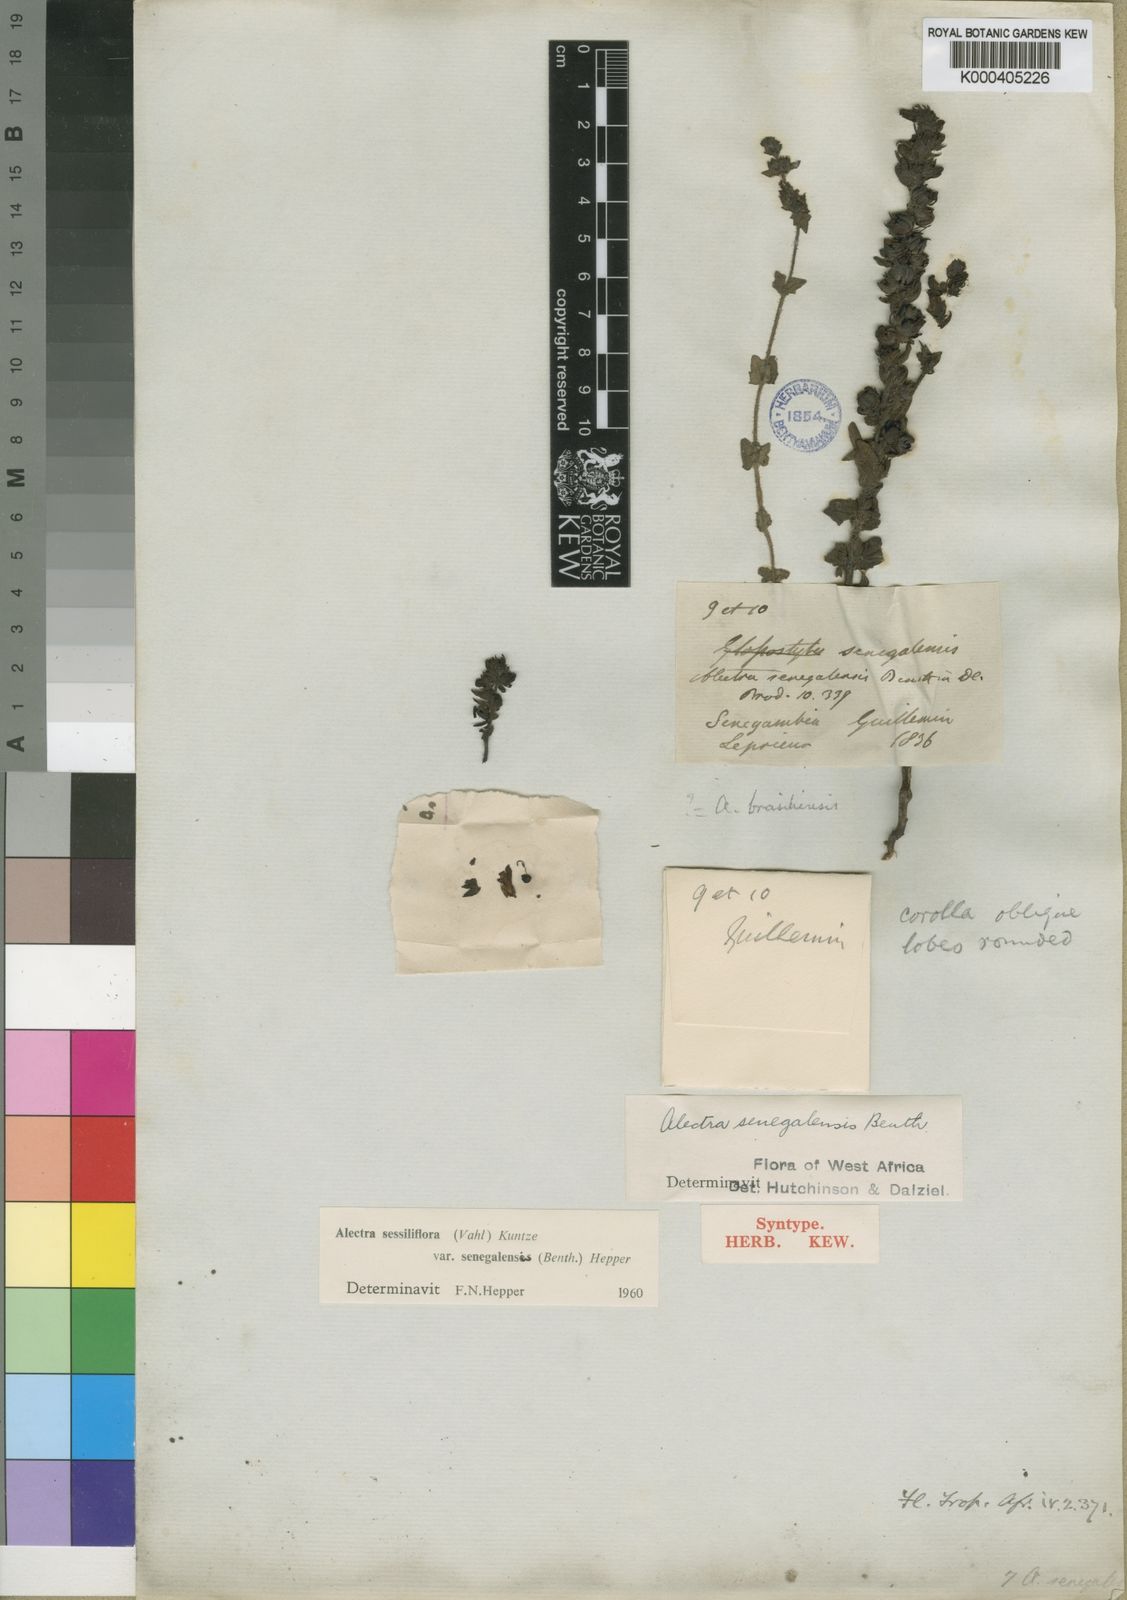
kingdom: Plantae
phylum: Tracheophyta
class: Magnoliopsida
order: Lamiales
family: Orobanchaceae
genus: Alectra
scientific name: Alectra sessiliflora
